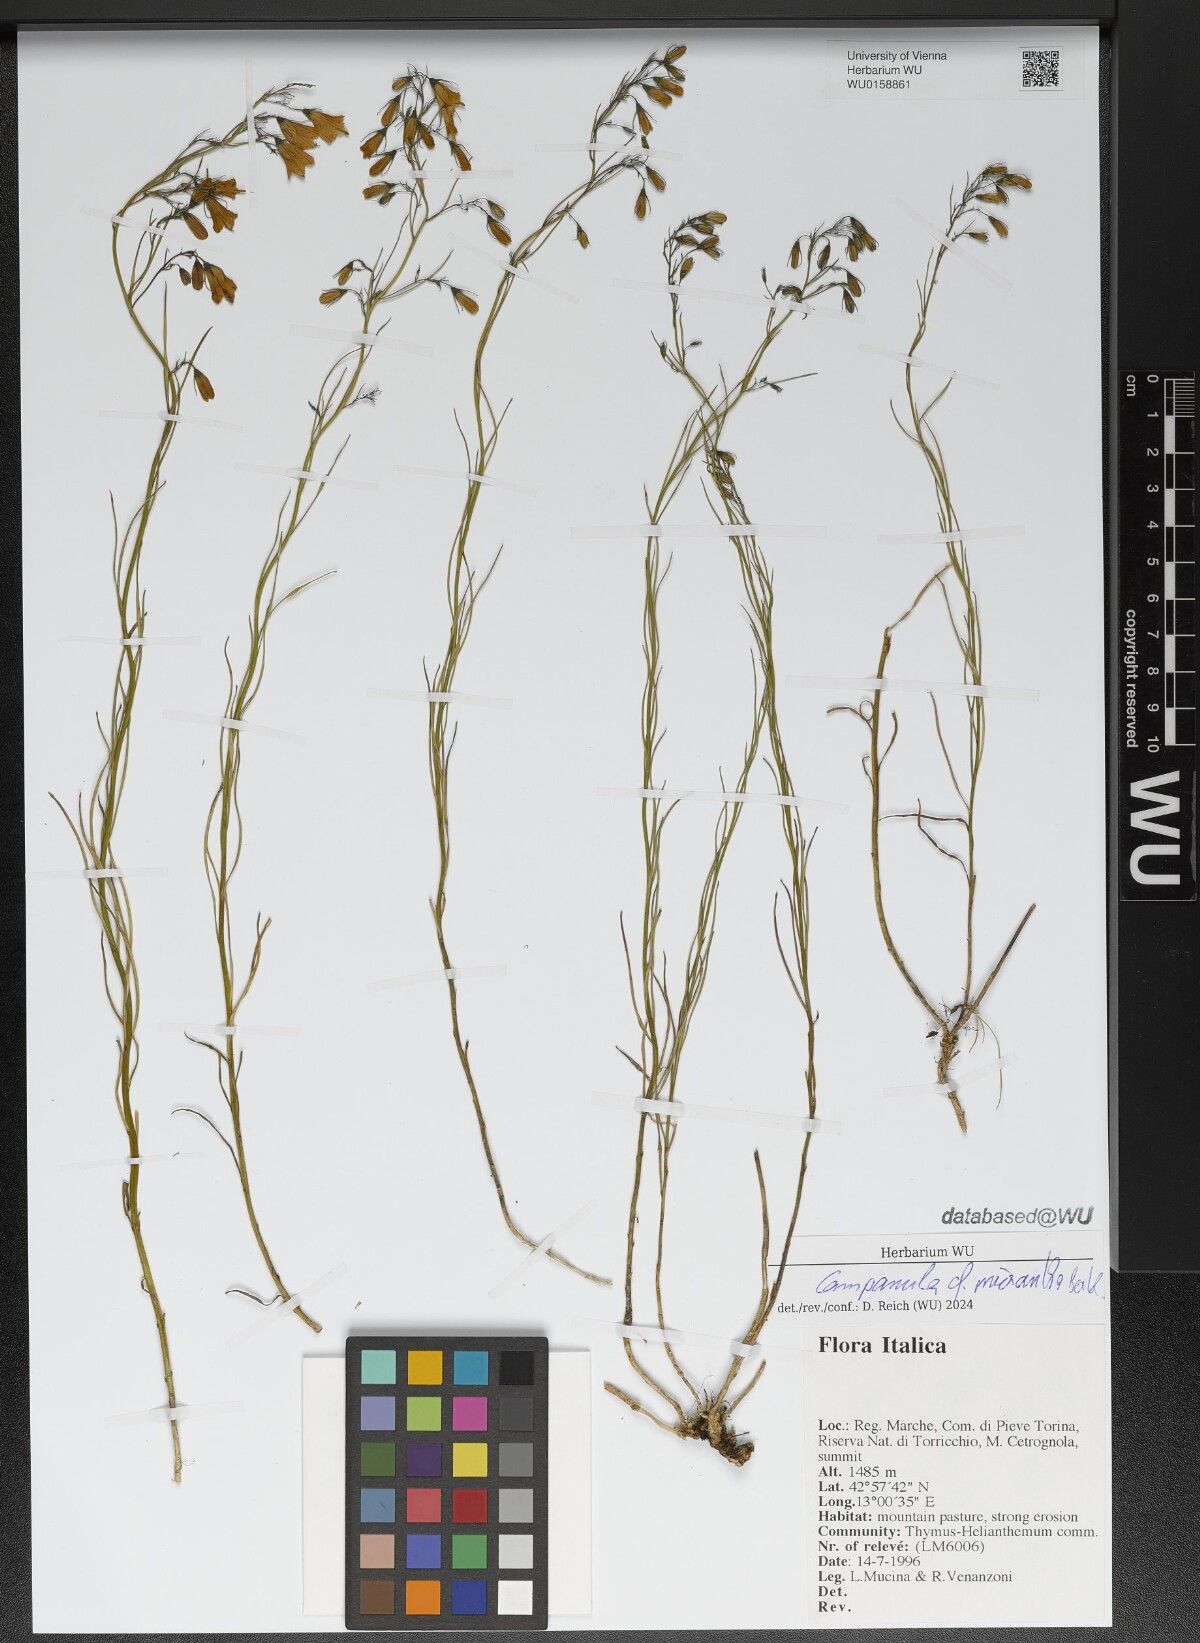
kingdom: Plantae
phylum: Tracheophyta
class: Magnoliopsida
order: Asterales
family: Campanulaceae
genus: Campanula
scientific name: Campanula micrantha
